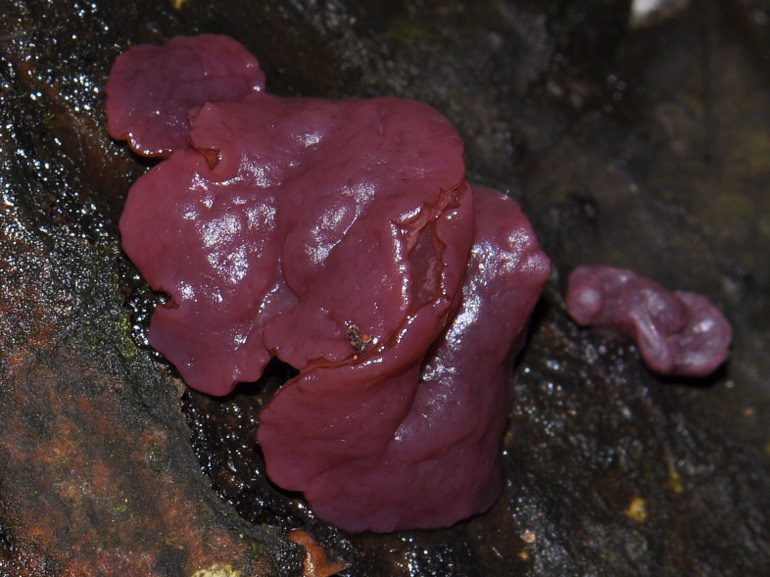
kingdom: Fungi
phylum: Ascomycota
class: Leotiomycetes
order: Helotiales
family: Gelatinodiscaceae
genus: Ascocoryne
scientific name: Ascocoryne cylichnium
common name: stor sejskive
